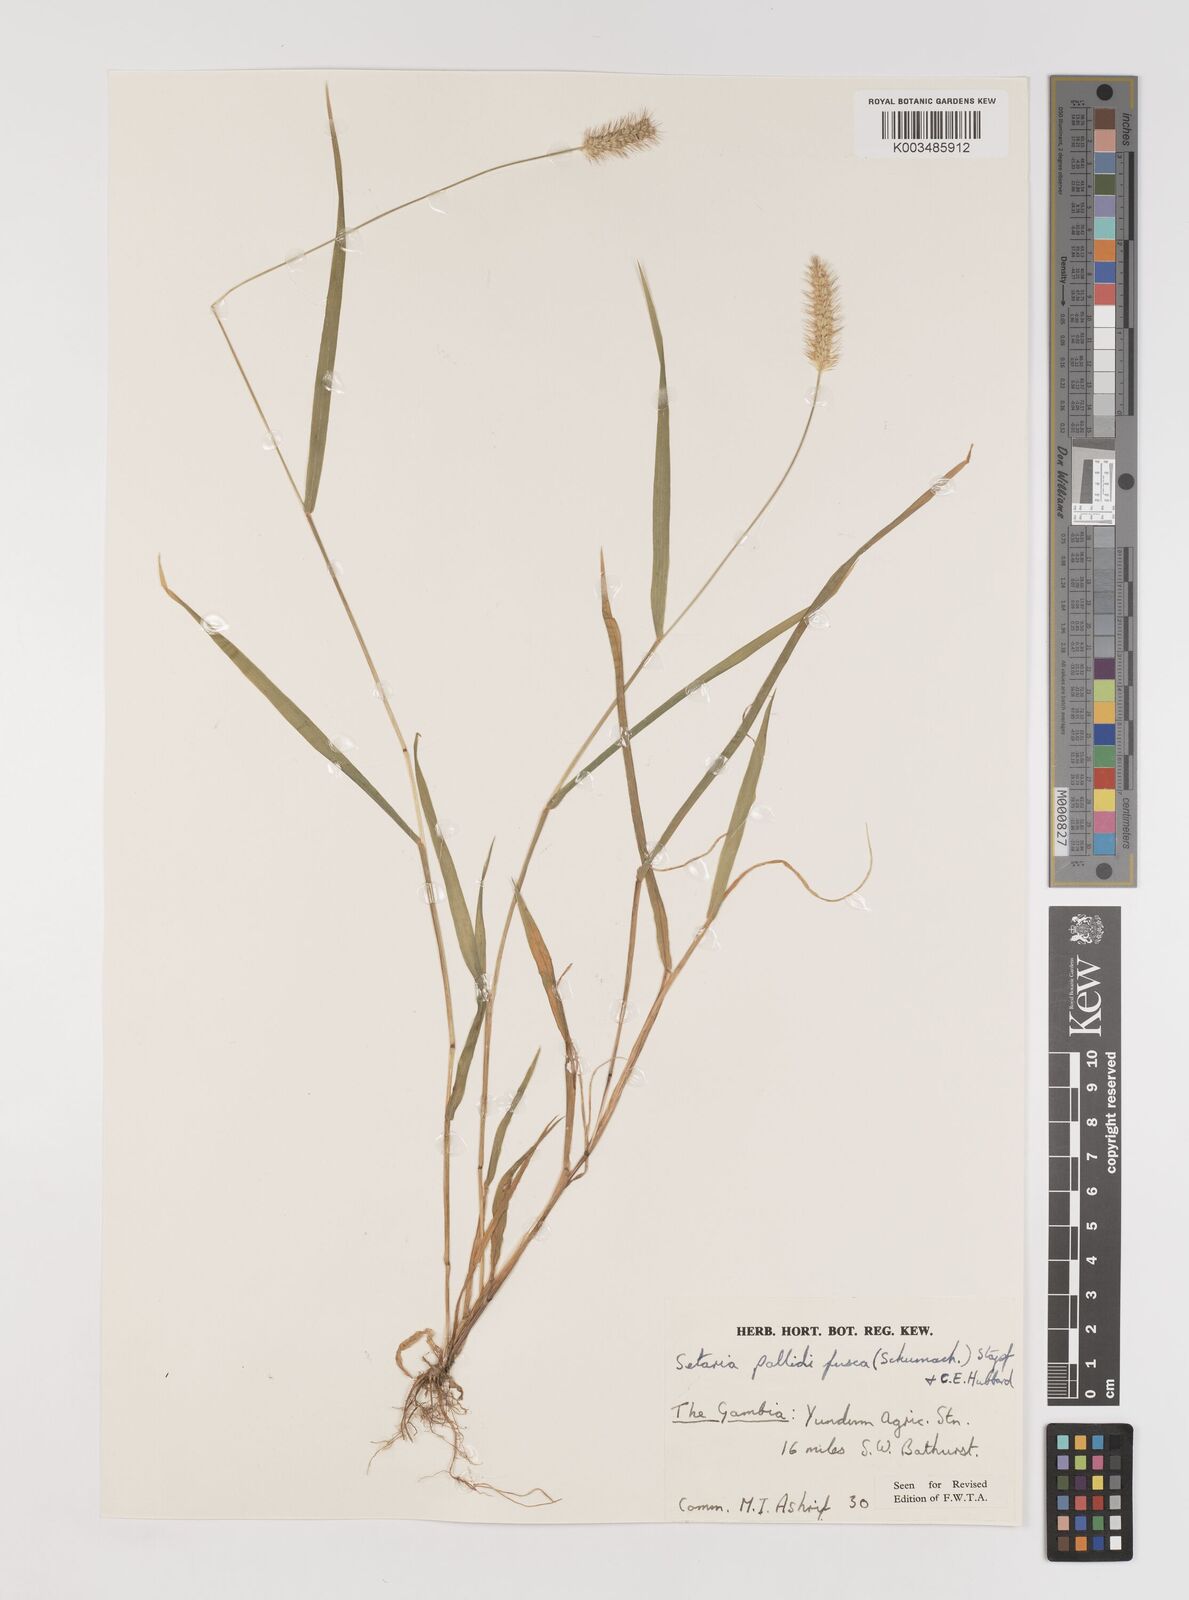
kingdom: Plantae
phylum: Tracheophyta
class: Liliopsida
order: Poales
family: Poaceae
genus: Setaria
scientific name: Setaria pumila
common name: Yellow bristle-grass
